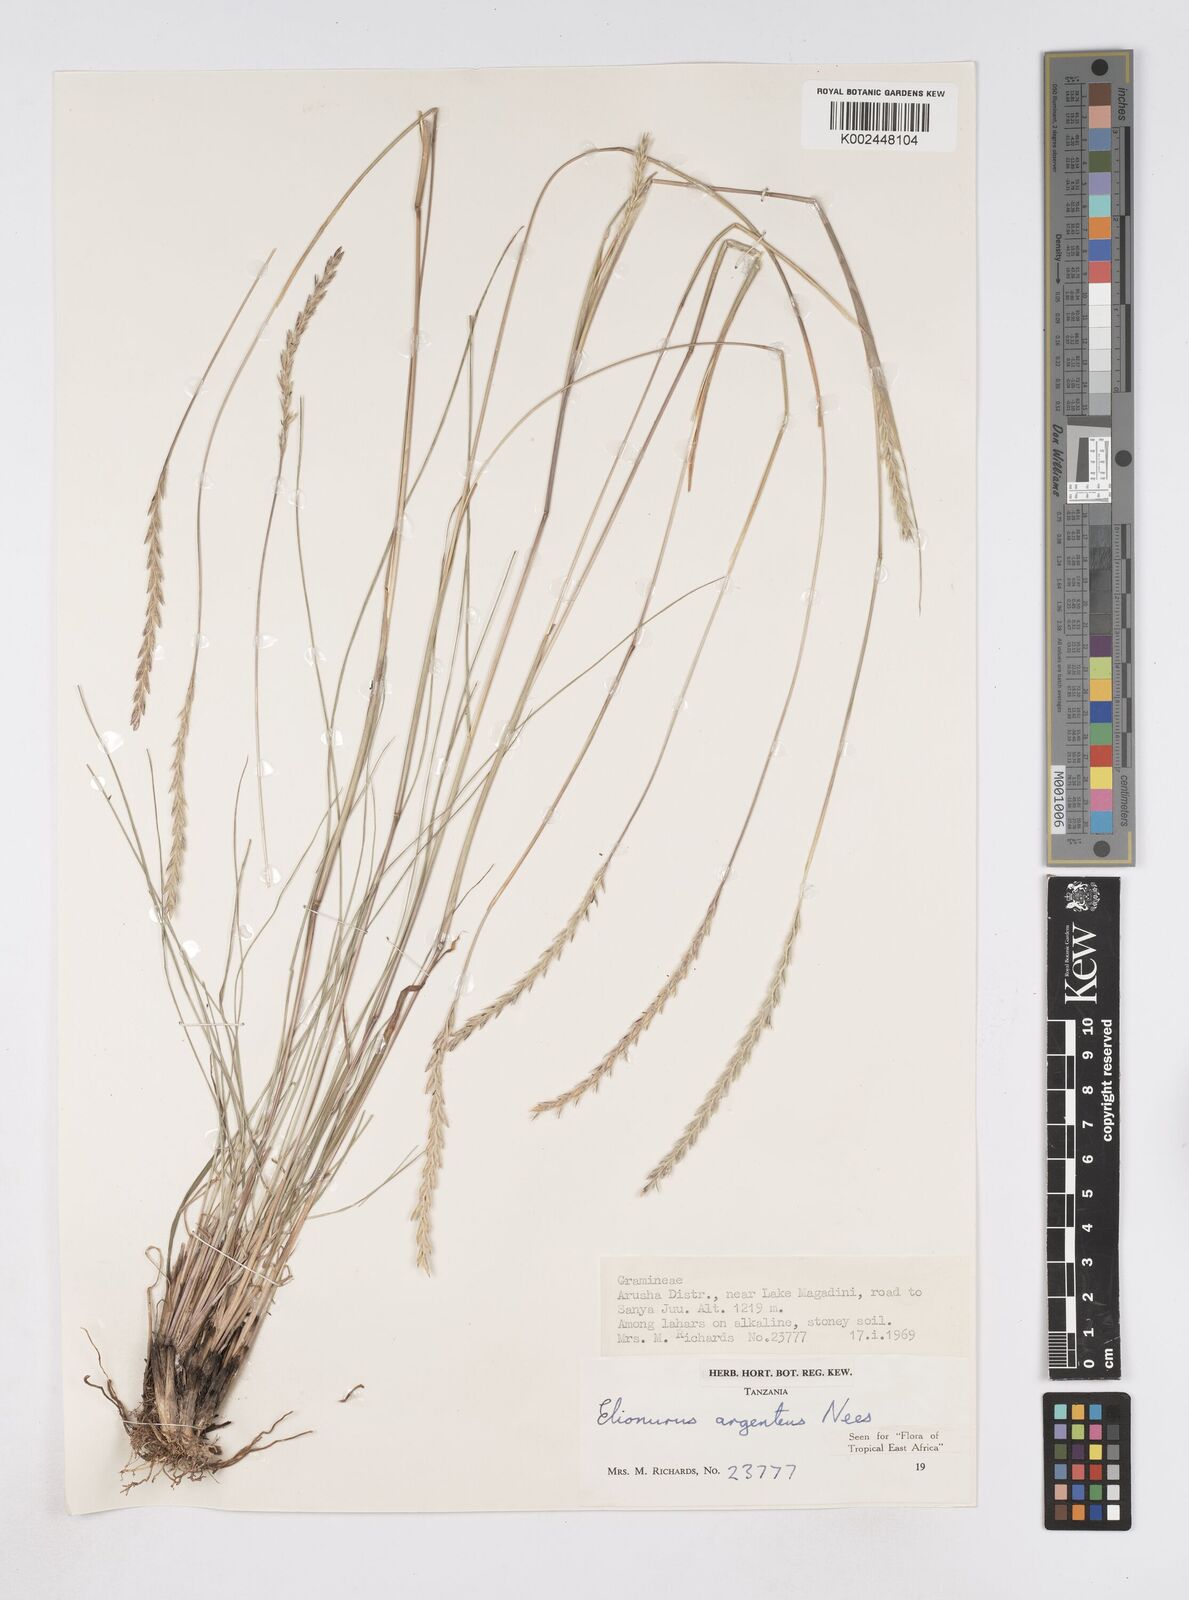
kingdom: Plantae
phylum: Tracheophyta
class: Liliopsida
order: Poales
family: Poaceae
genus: Elionurus
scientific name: Elionurus muticus
